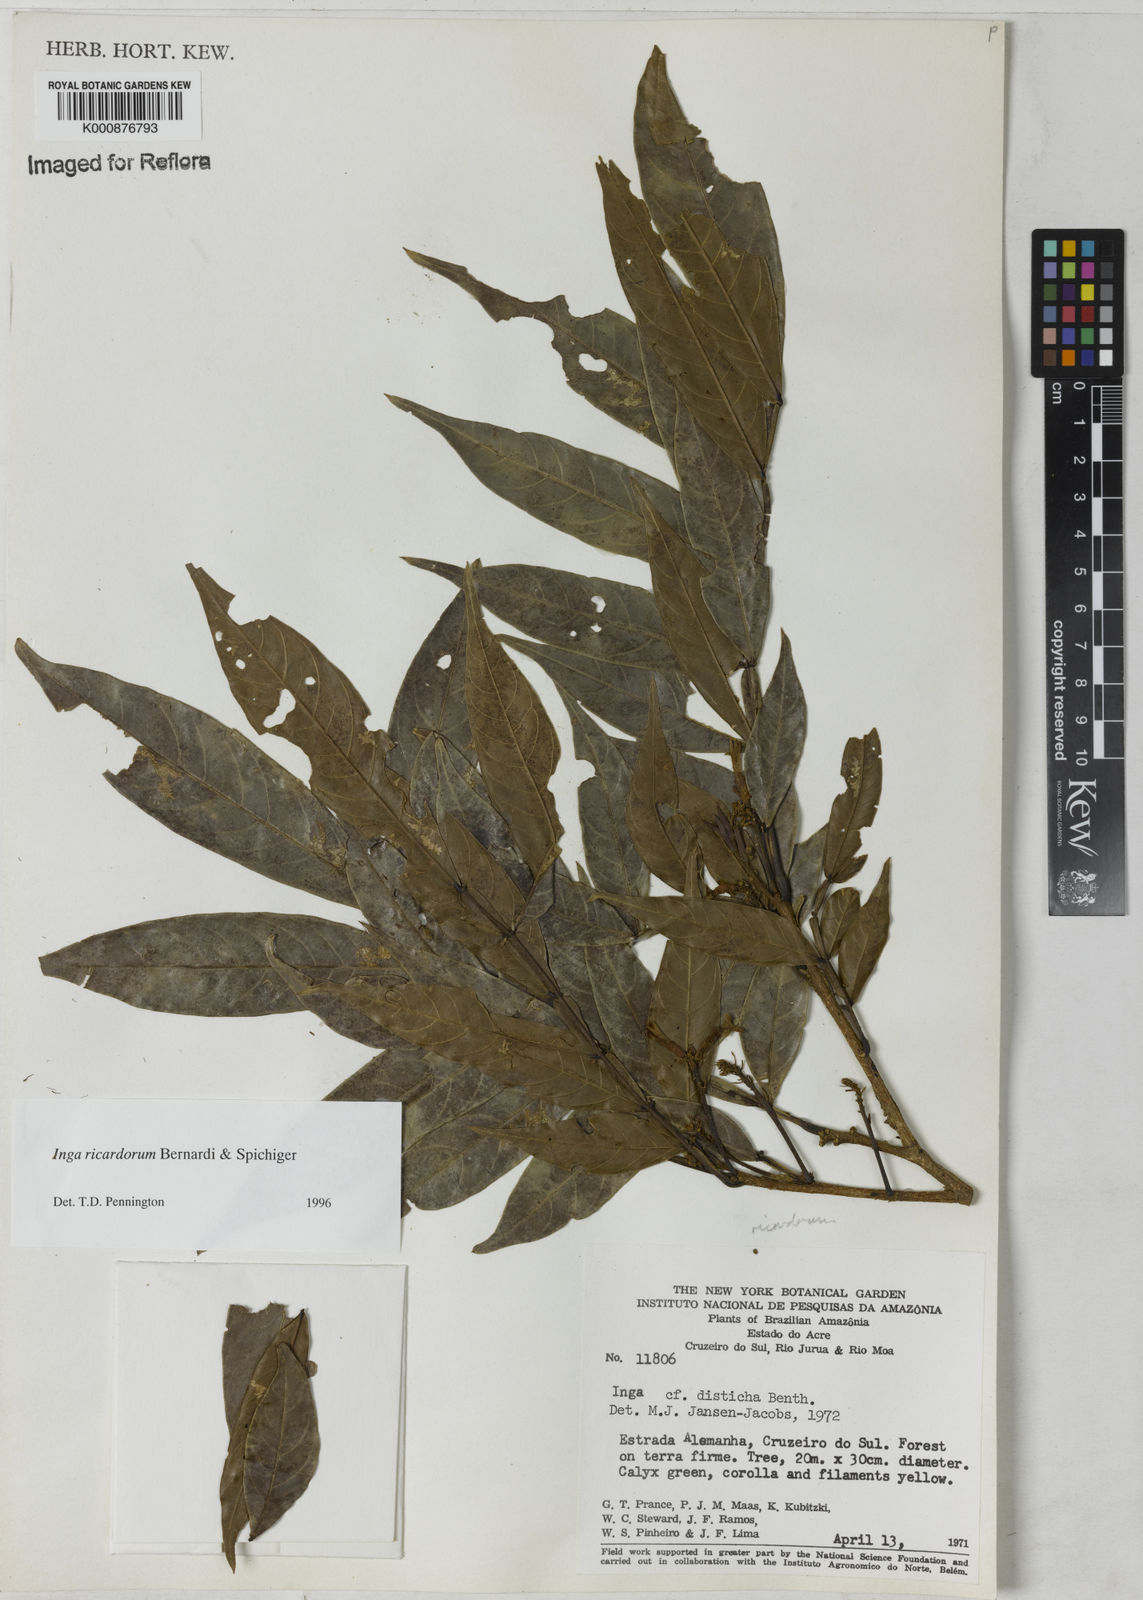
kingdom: Plantae
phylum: Tracheophyta
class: Magnoliopsida
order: Fabales
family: Fabaceae
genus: Inga
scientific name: Inga chrysantha
